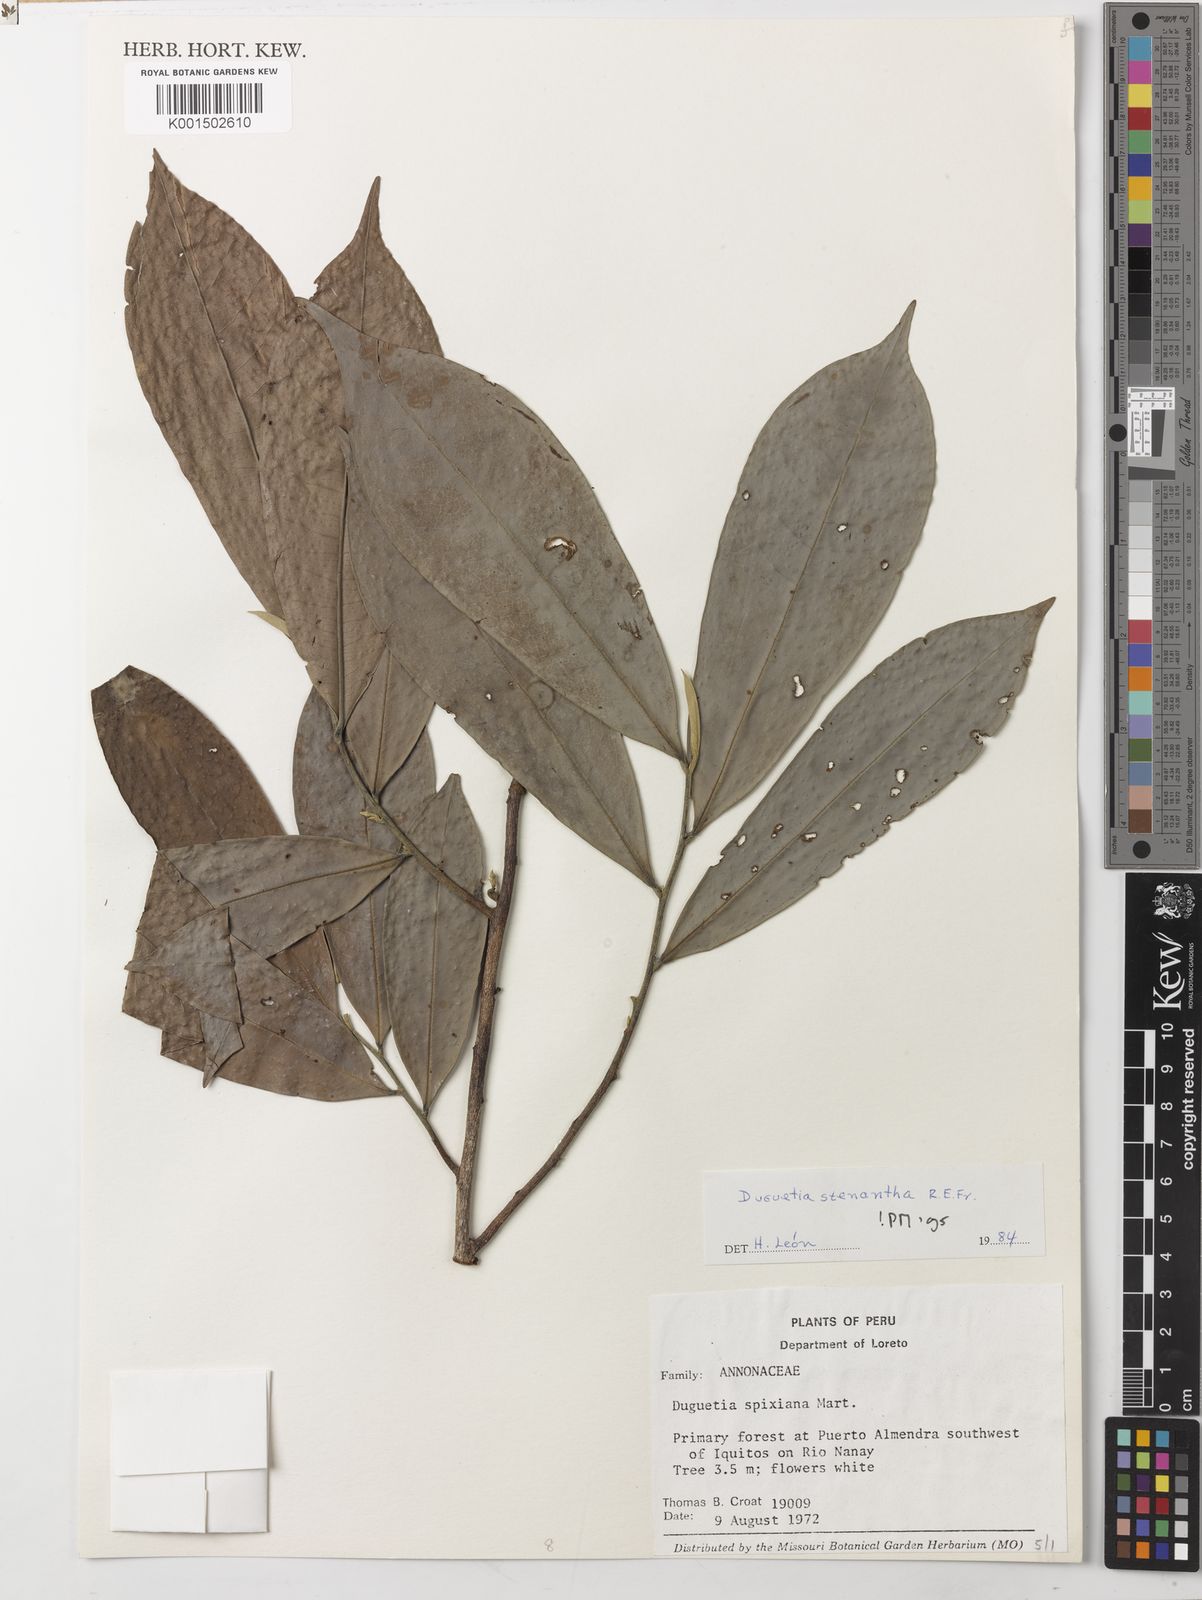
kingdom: Plantae
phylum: Tracheophyta
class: Magnoliopsida
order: Magnoliales
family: Annonaceae
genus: Duguetia
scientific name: Duguetia stenantha
